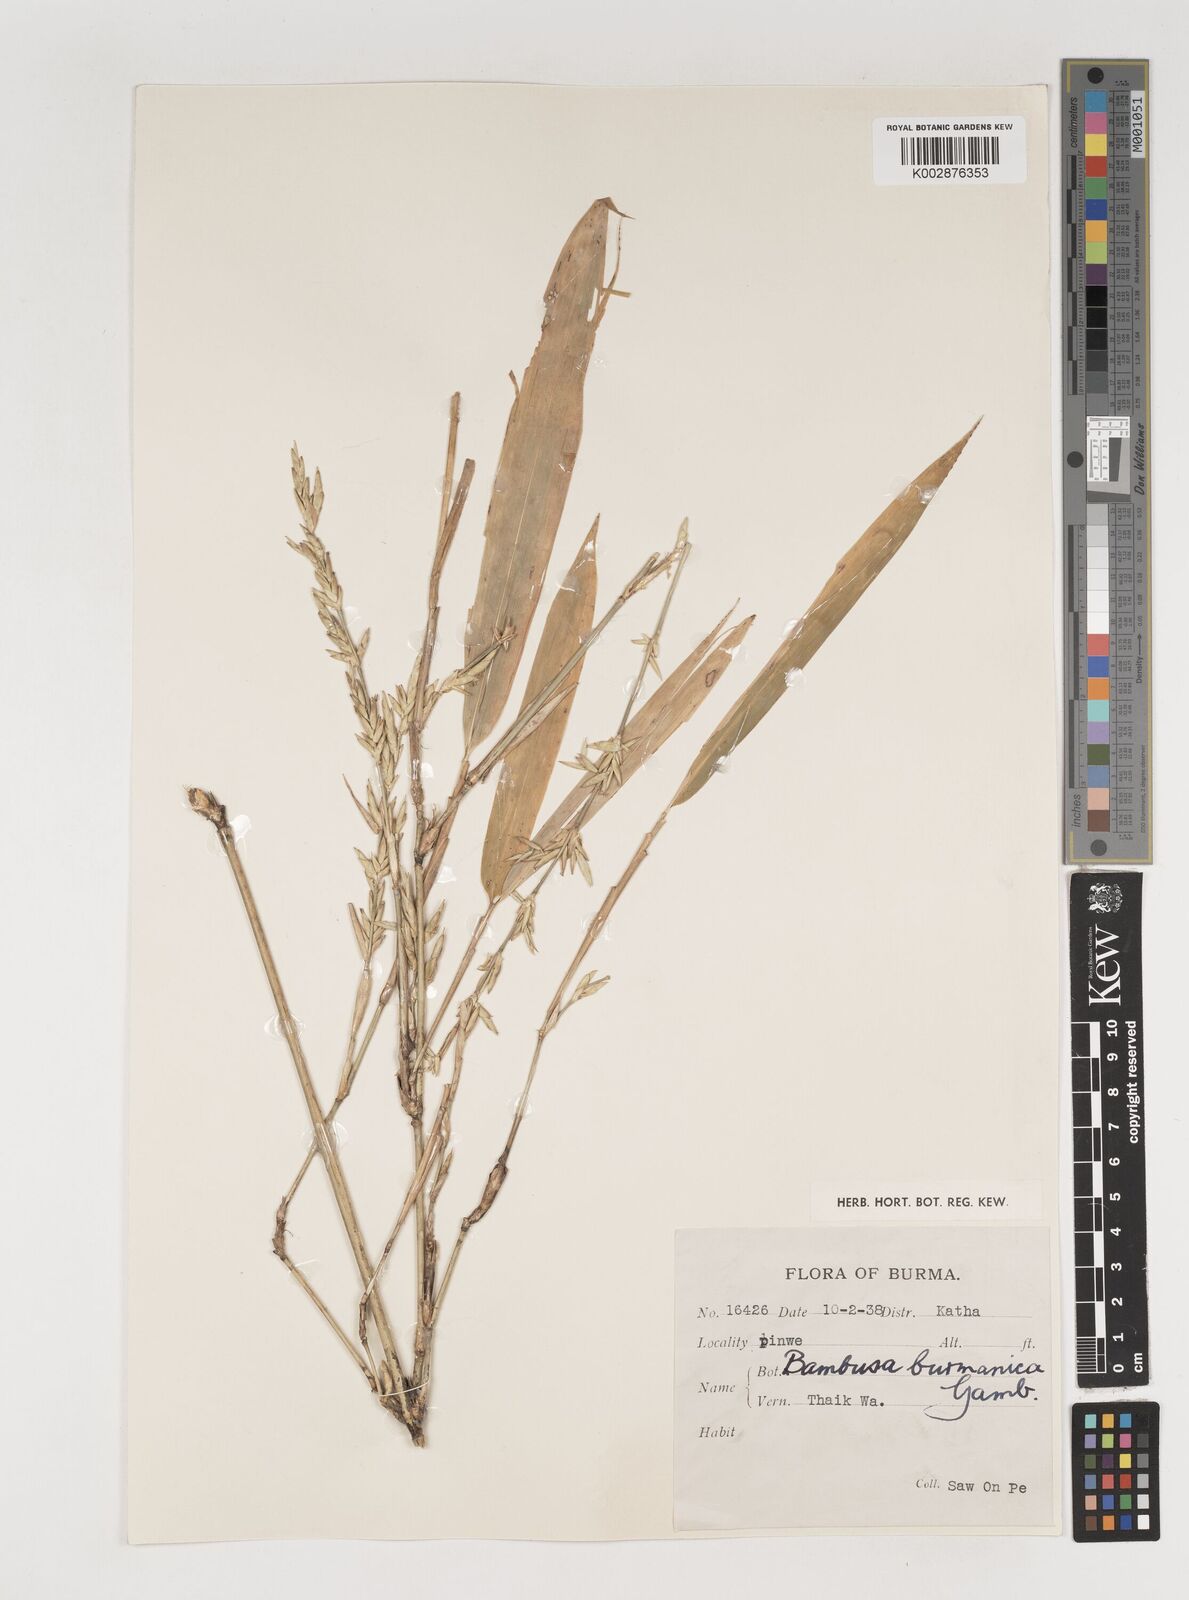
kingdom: Plantae
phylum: Tracheophyta
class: Liliopsida
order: Poales
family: Poaceae
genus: Bambusa
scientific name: Bambusa burmanica
